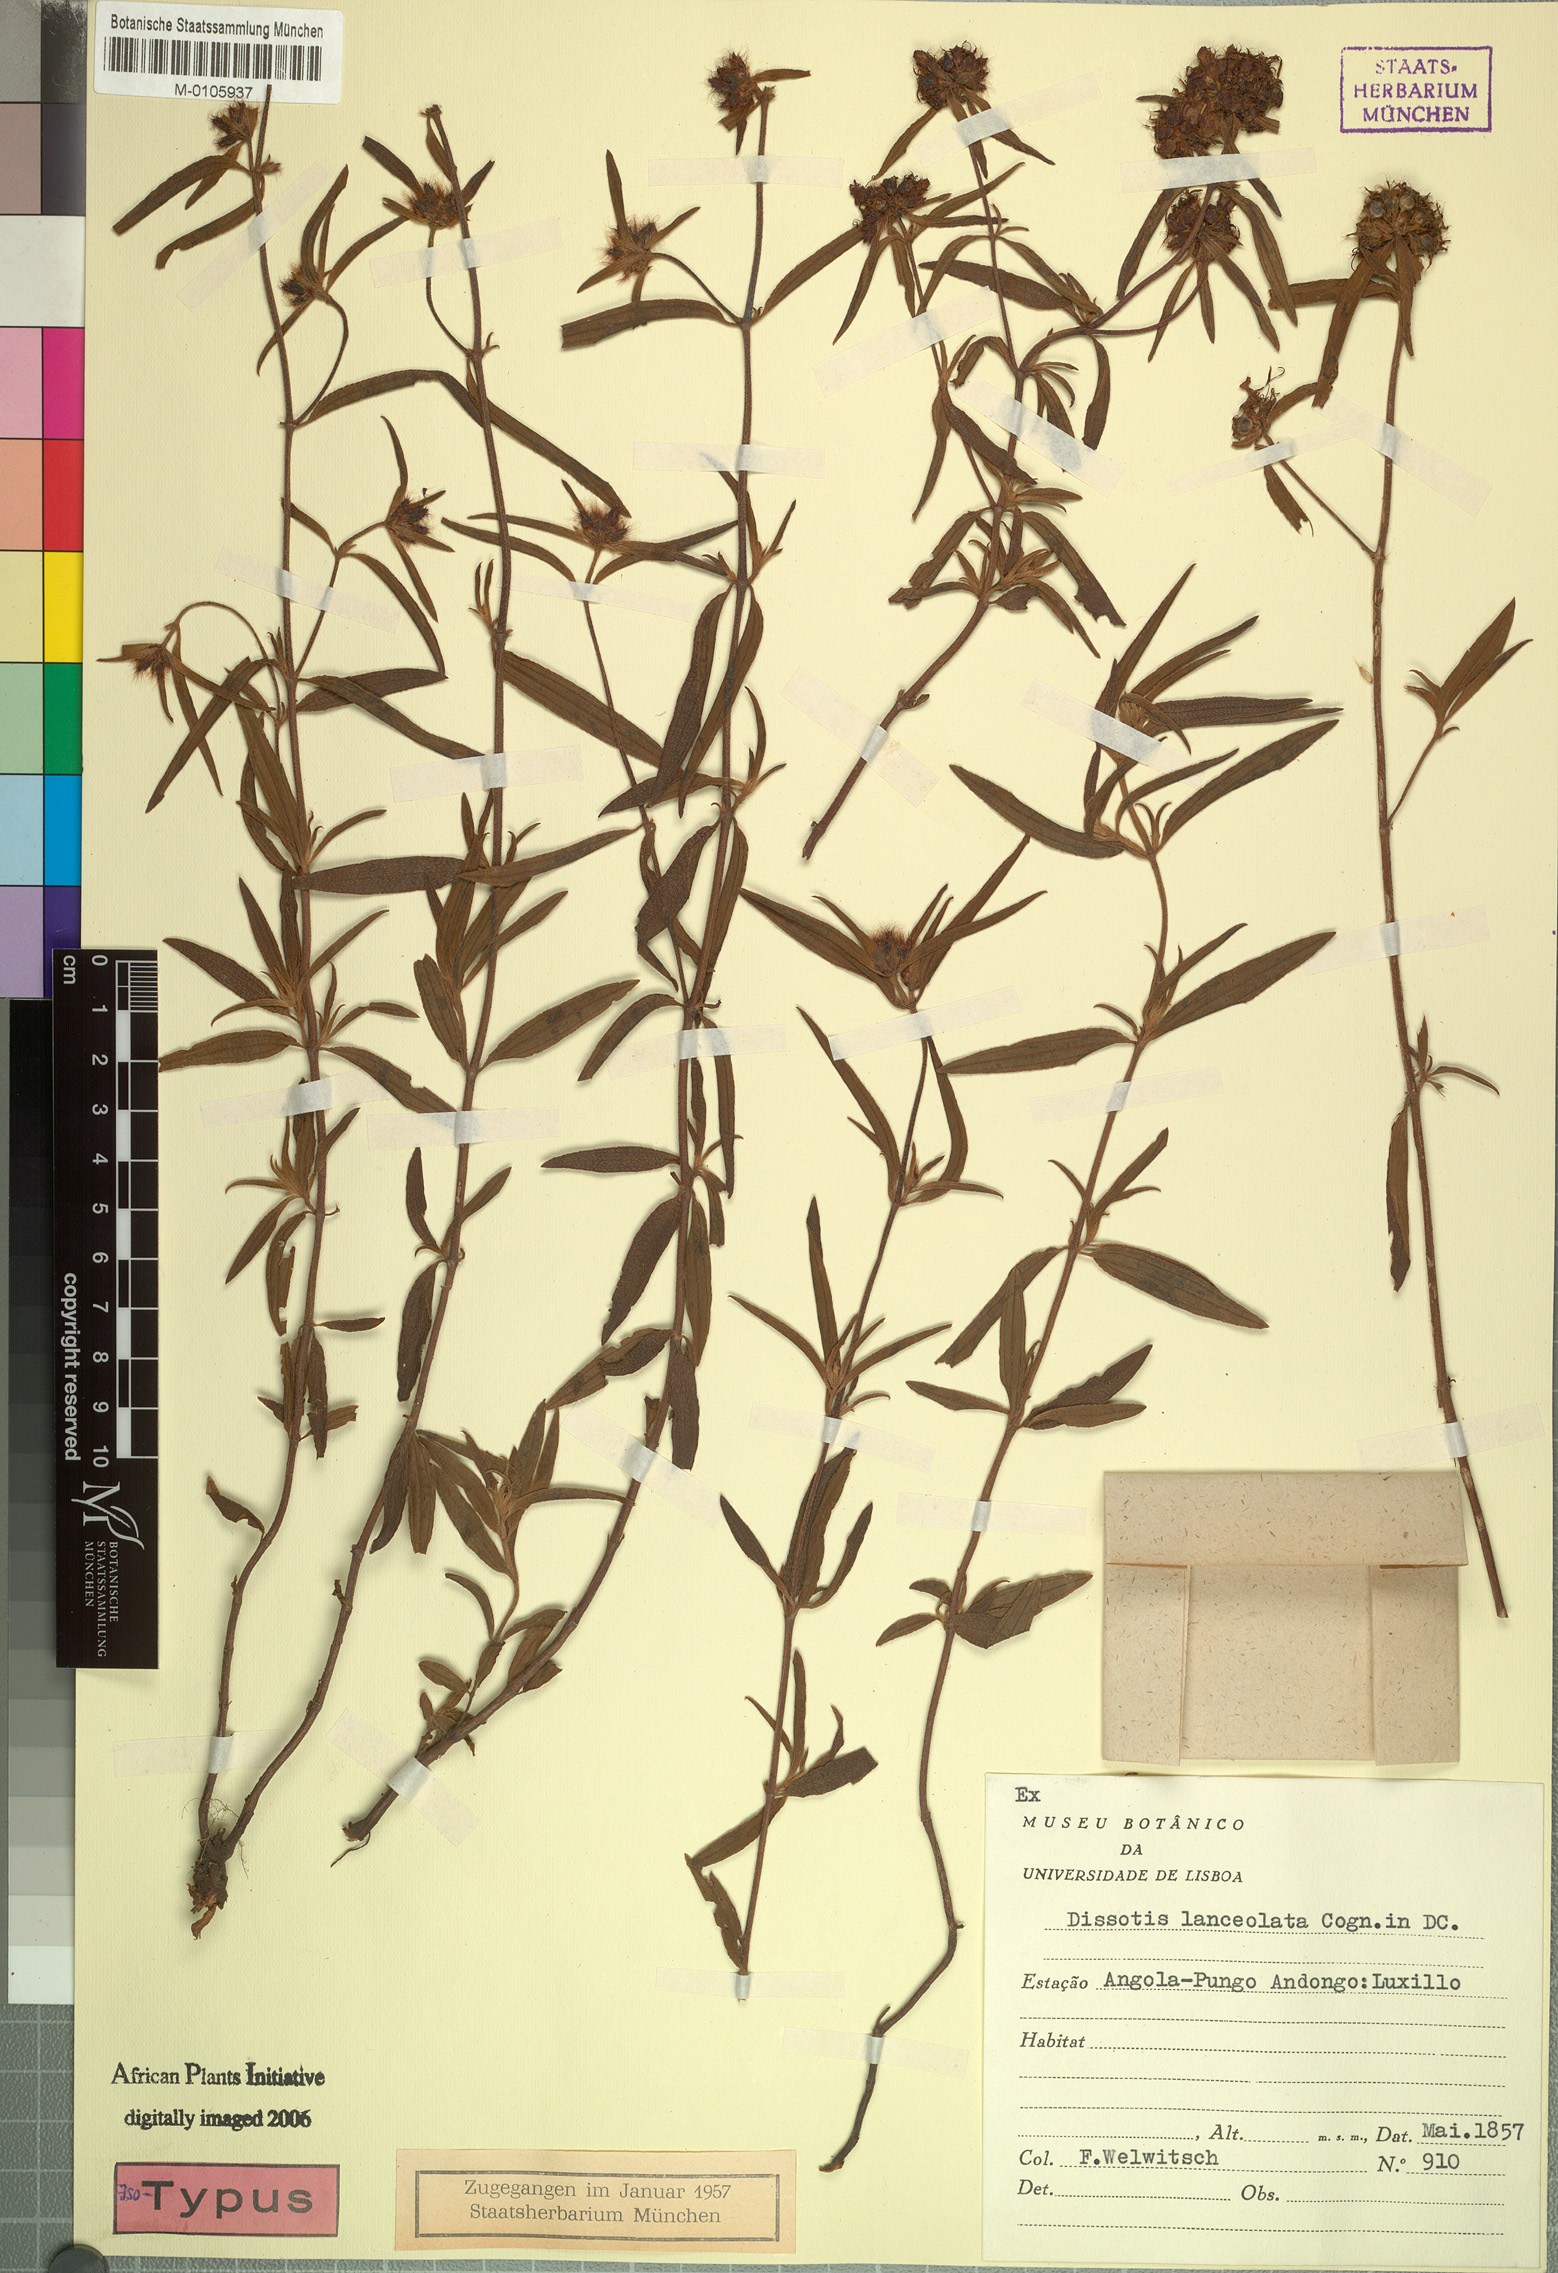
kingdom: Plantae
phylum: Tracheophyta
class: Magnoliopsida
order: Myrtales
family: Melastomataceae
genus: Antherotoma
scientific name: Antherotoma debilis
